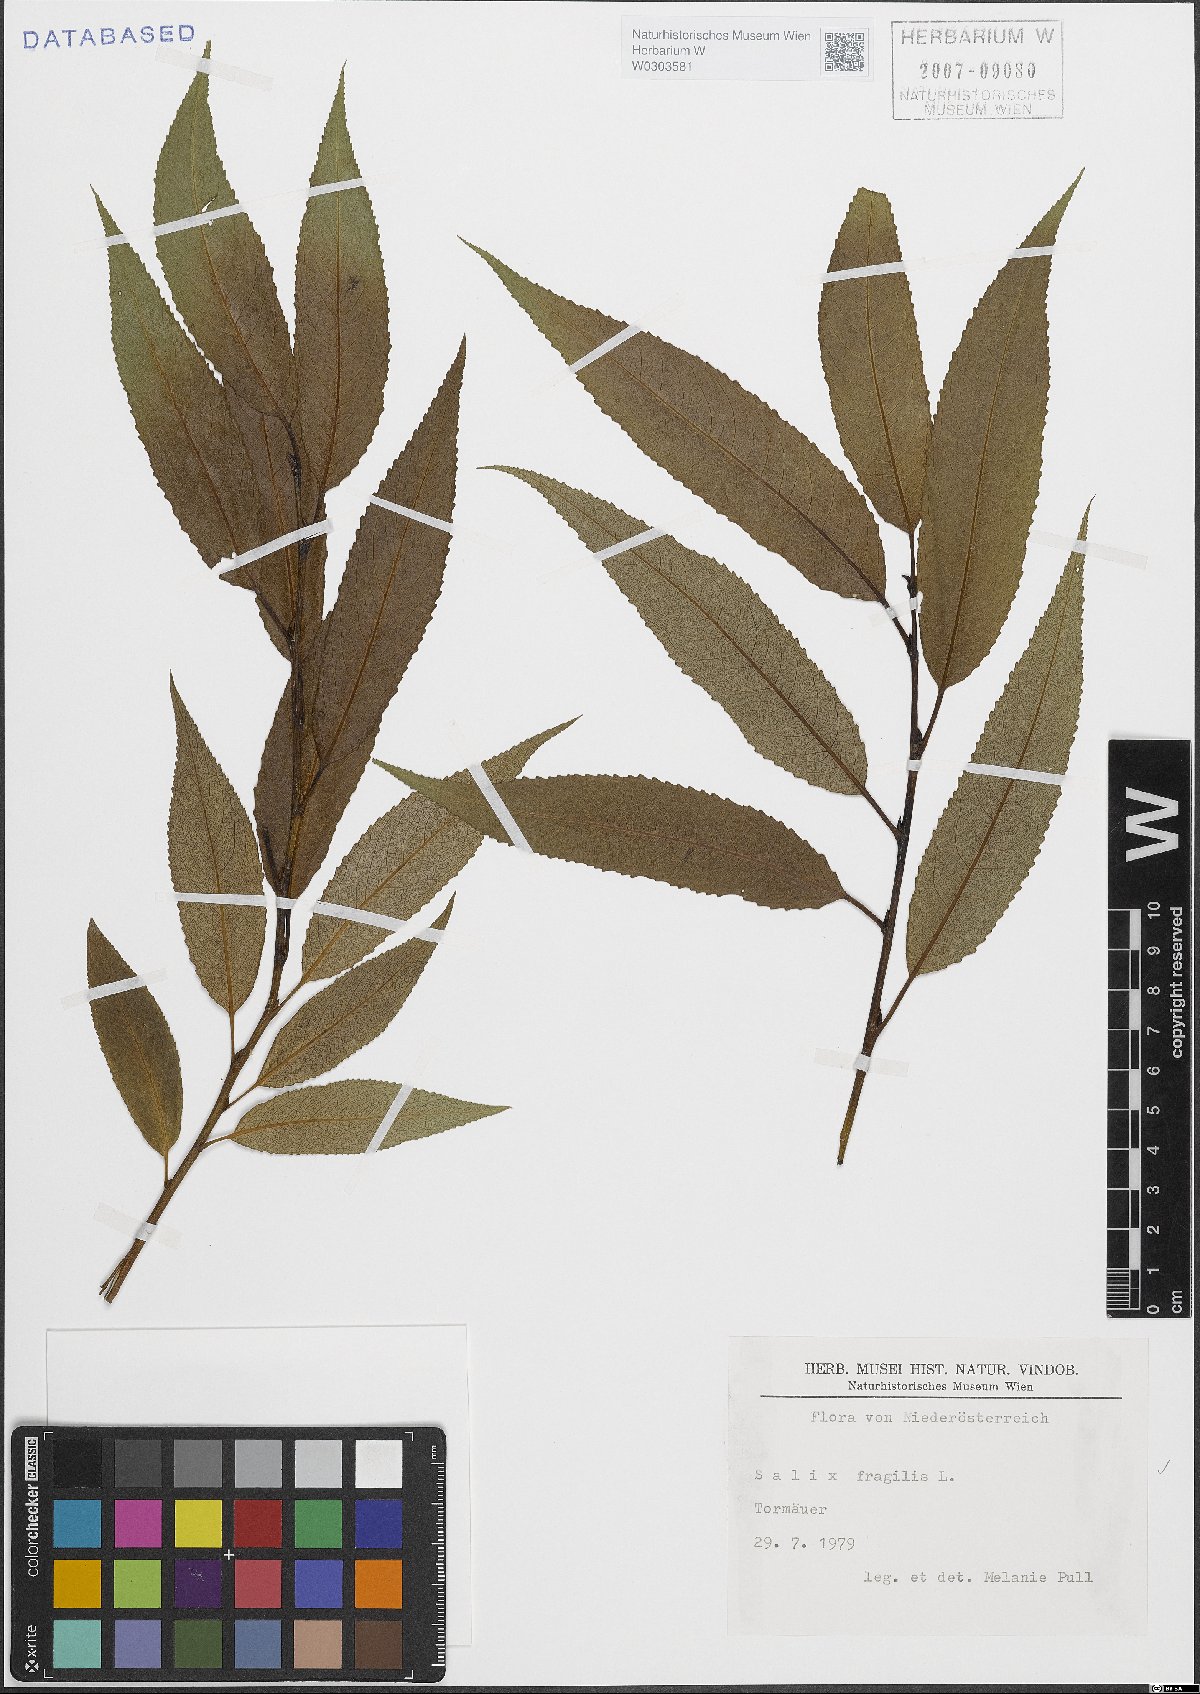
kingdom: Plantae
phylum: Tracheophyta
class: Magnoliopsida
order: Malpighiales
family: Salicaceae
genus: Salix
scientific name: Salix fragilis
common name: Crack willow
